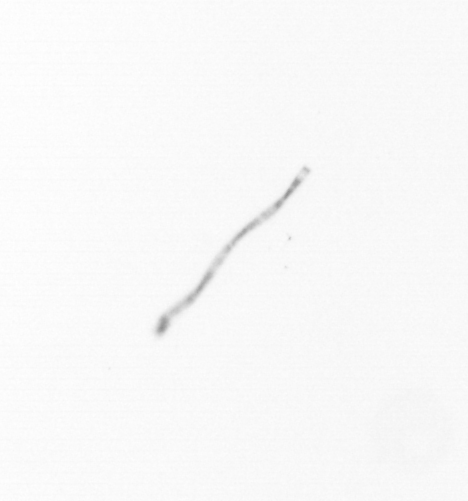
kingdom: Chromista
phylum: Ochrophyta
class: Bacillariophyceae
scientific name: Bacillariophyceae
